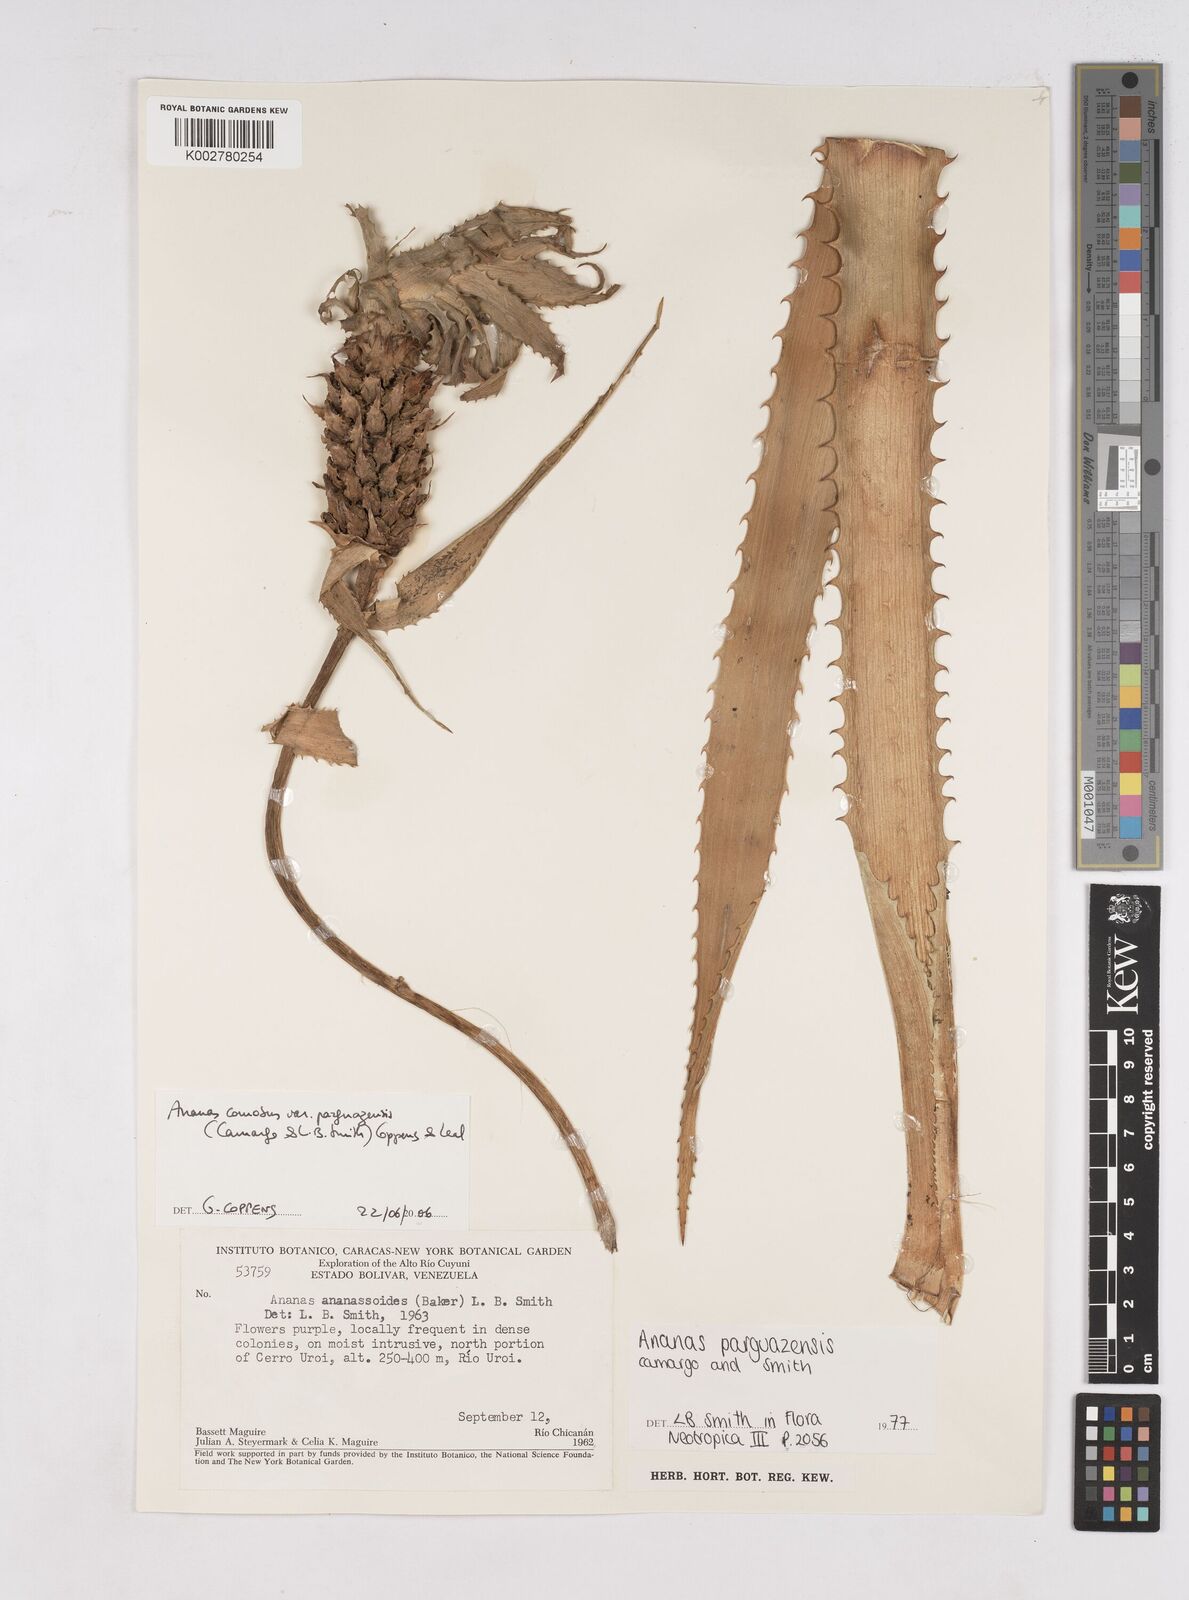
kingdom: Plantae
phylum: Tracheophyta
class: Liliopsida
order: Poales
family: Bromeliaceae
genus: Ananas
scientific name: Ananas comosus
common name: Pineapple
